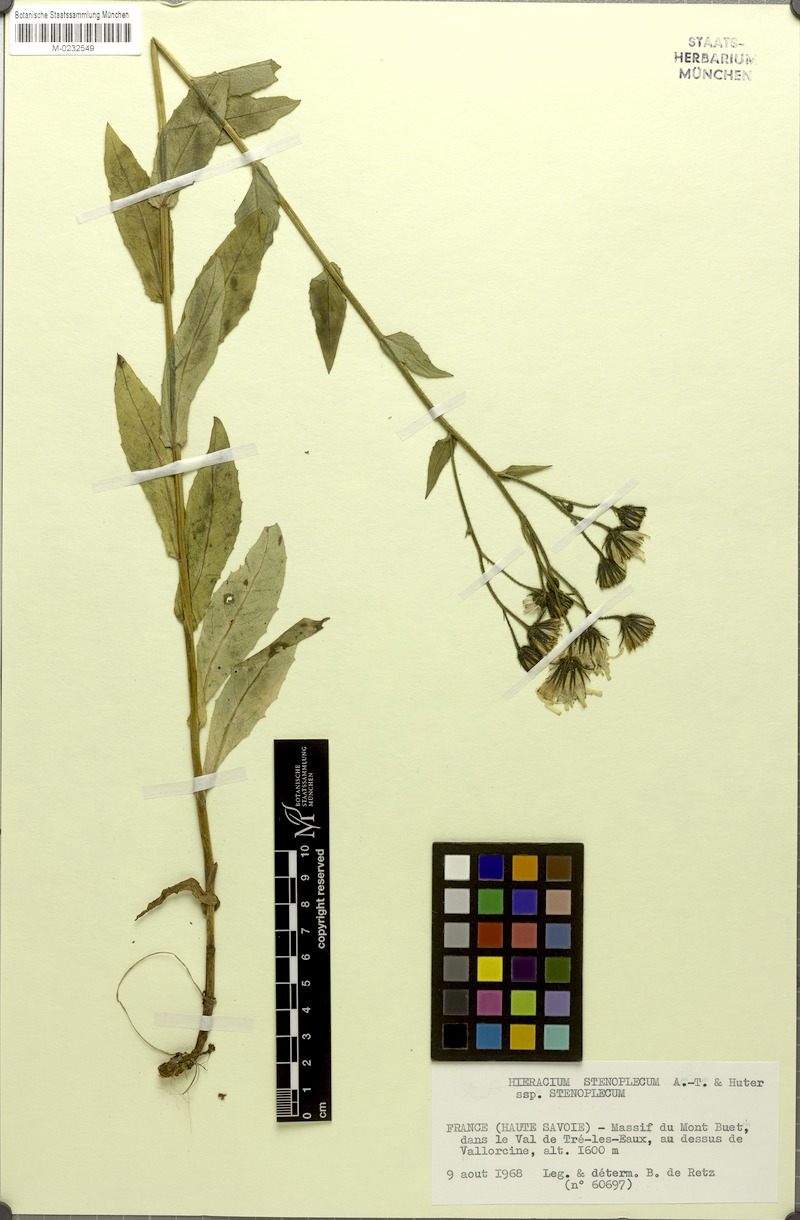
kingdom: Plantae
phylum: Tracheophyta
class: Magnoliopsida
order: Asterales
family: Asteraceae
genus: Hieracium
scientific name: Hieracium stenoplecum
